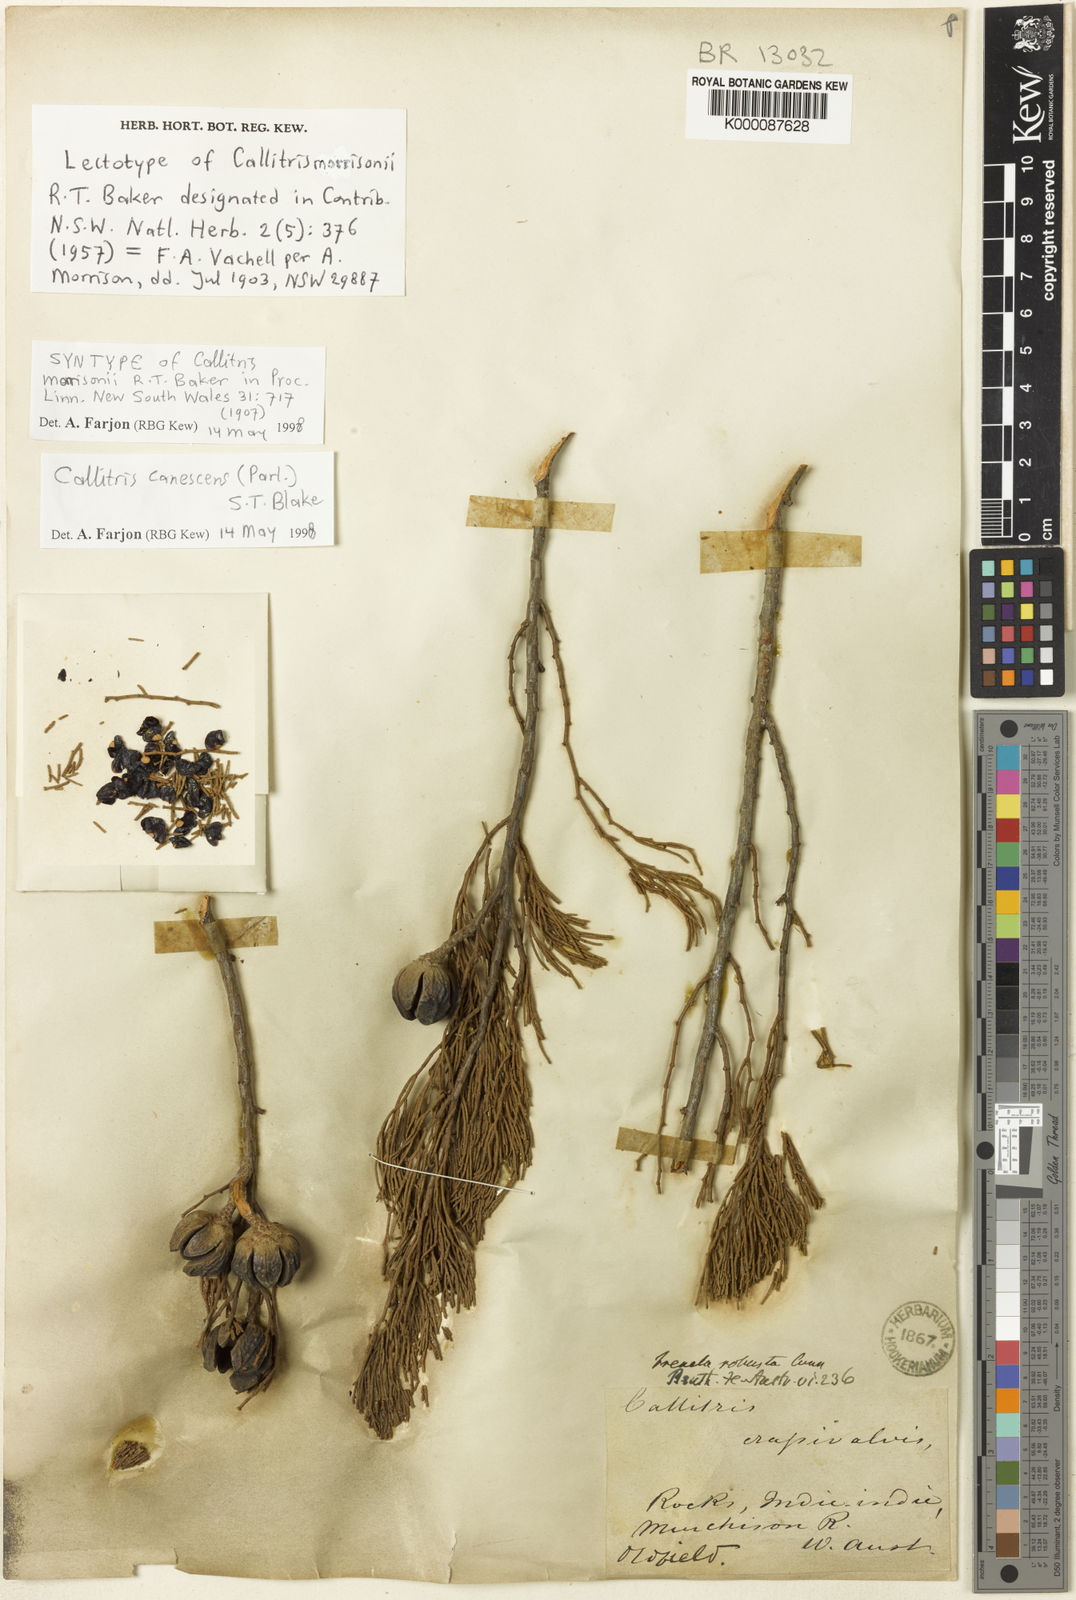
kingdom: Plantae
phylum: Tracheophyta
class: Pinopsida
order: Pinales
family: Cupressaceae
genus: Callitris
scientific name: Callitris canescens
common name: Morrison's cypress-pine
